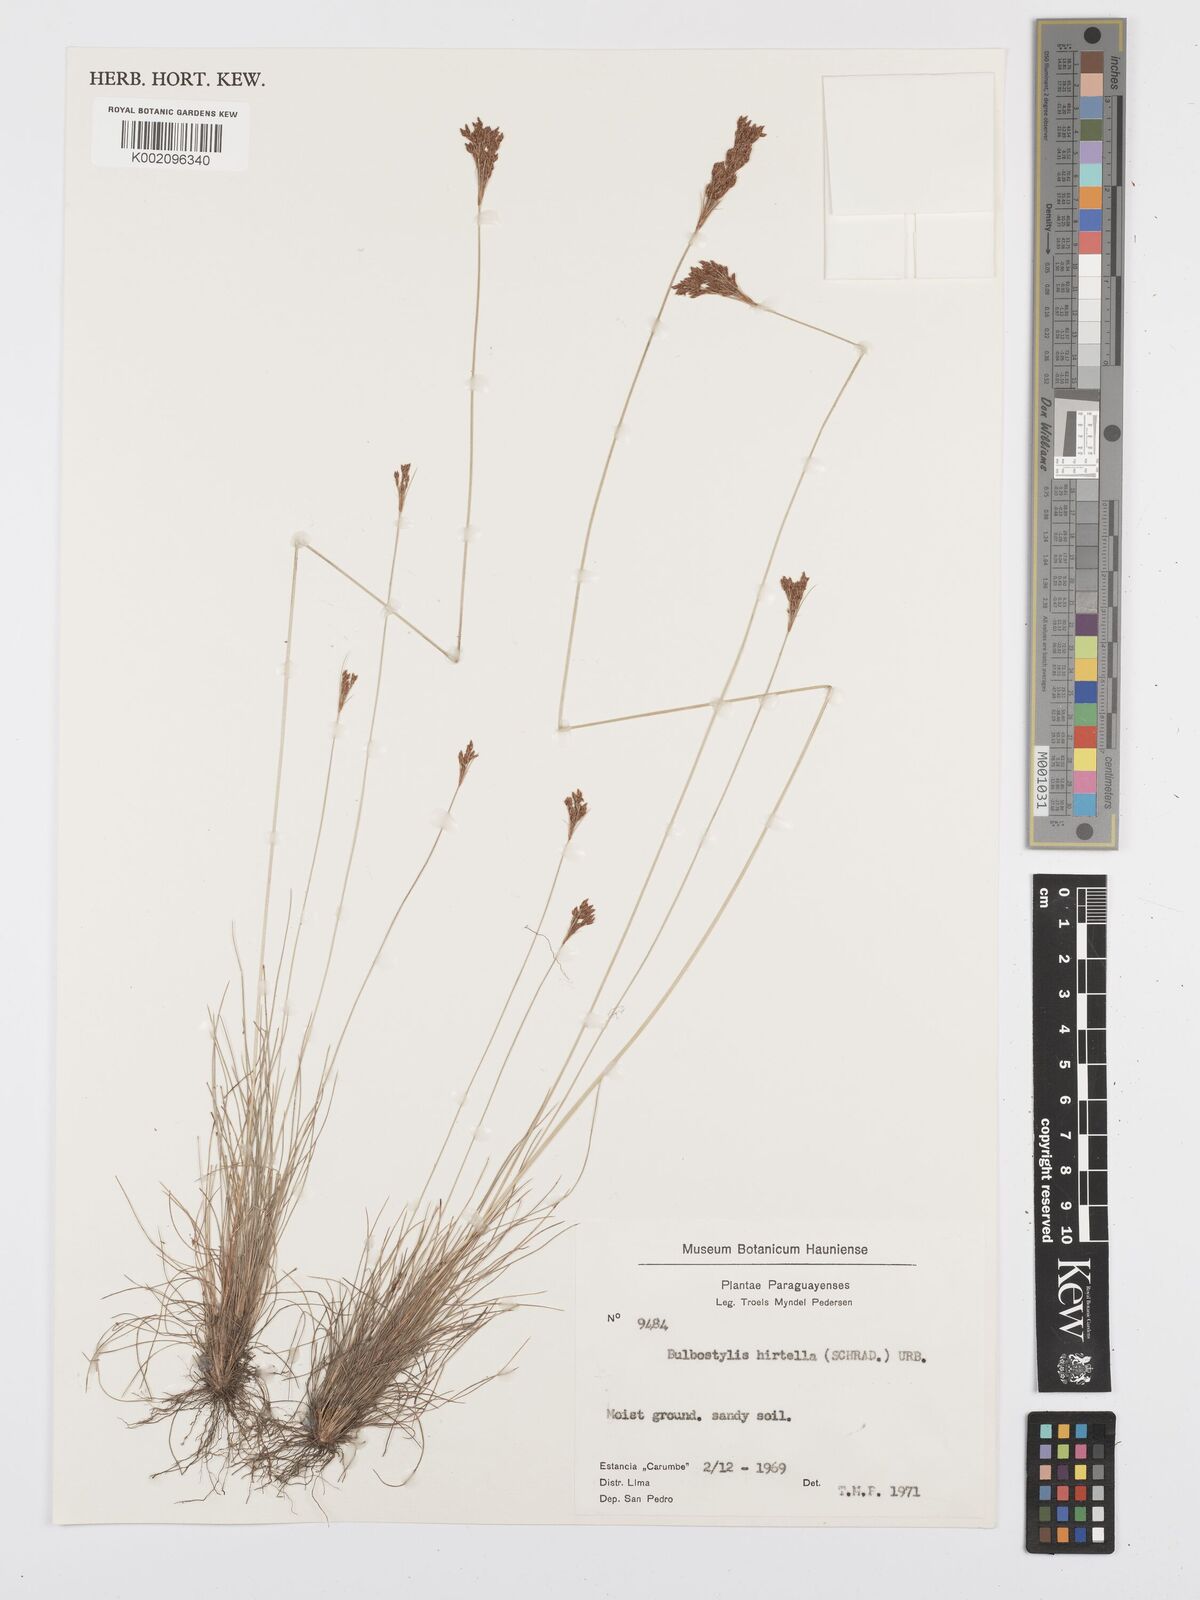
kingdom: Plantae
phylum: Tracheophyta
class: Liliopsida
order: Poales
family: Cyperaceae
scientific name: Cyperaceae
